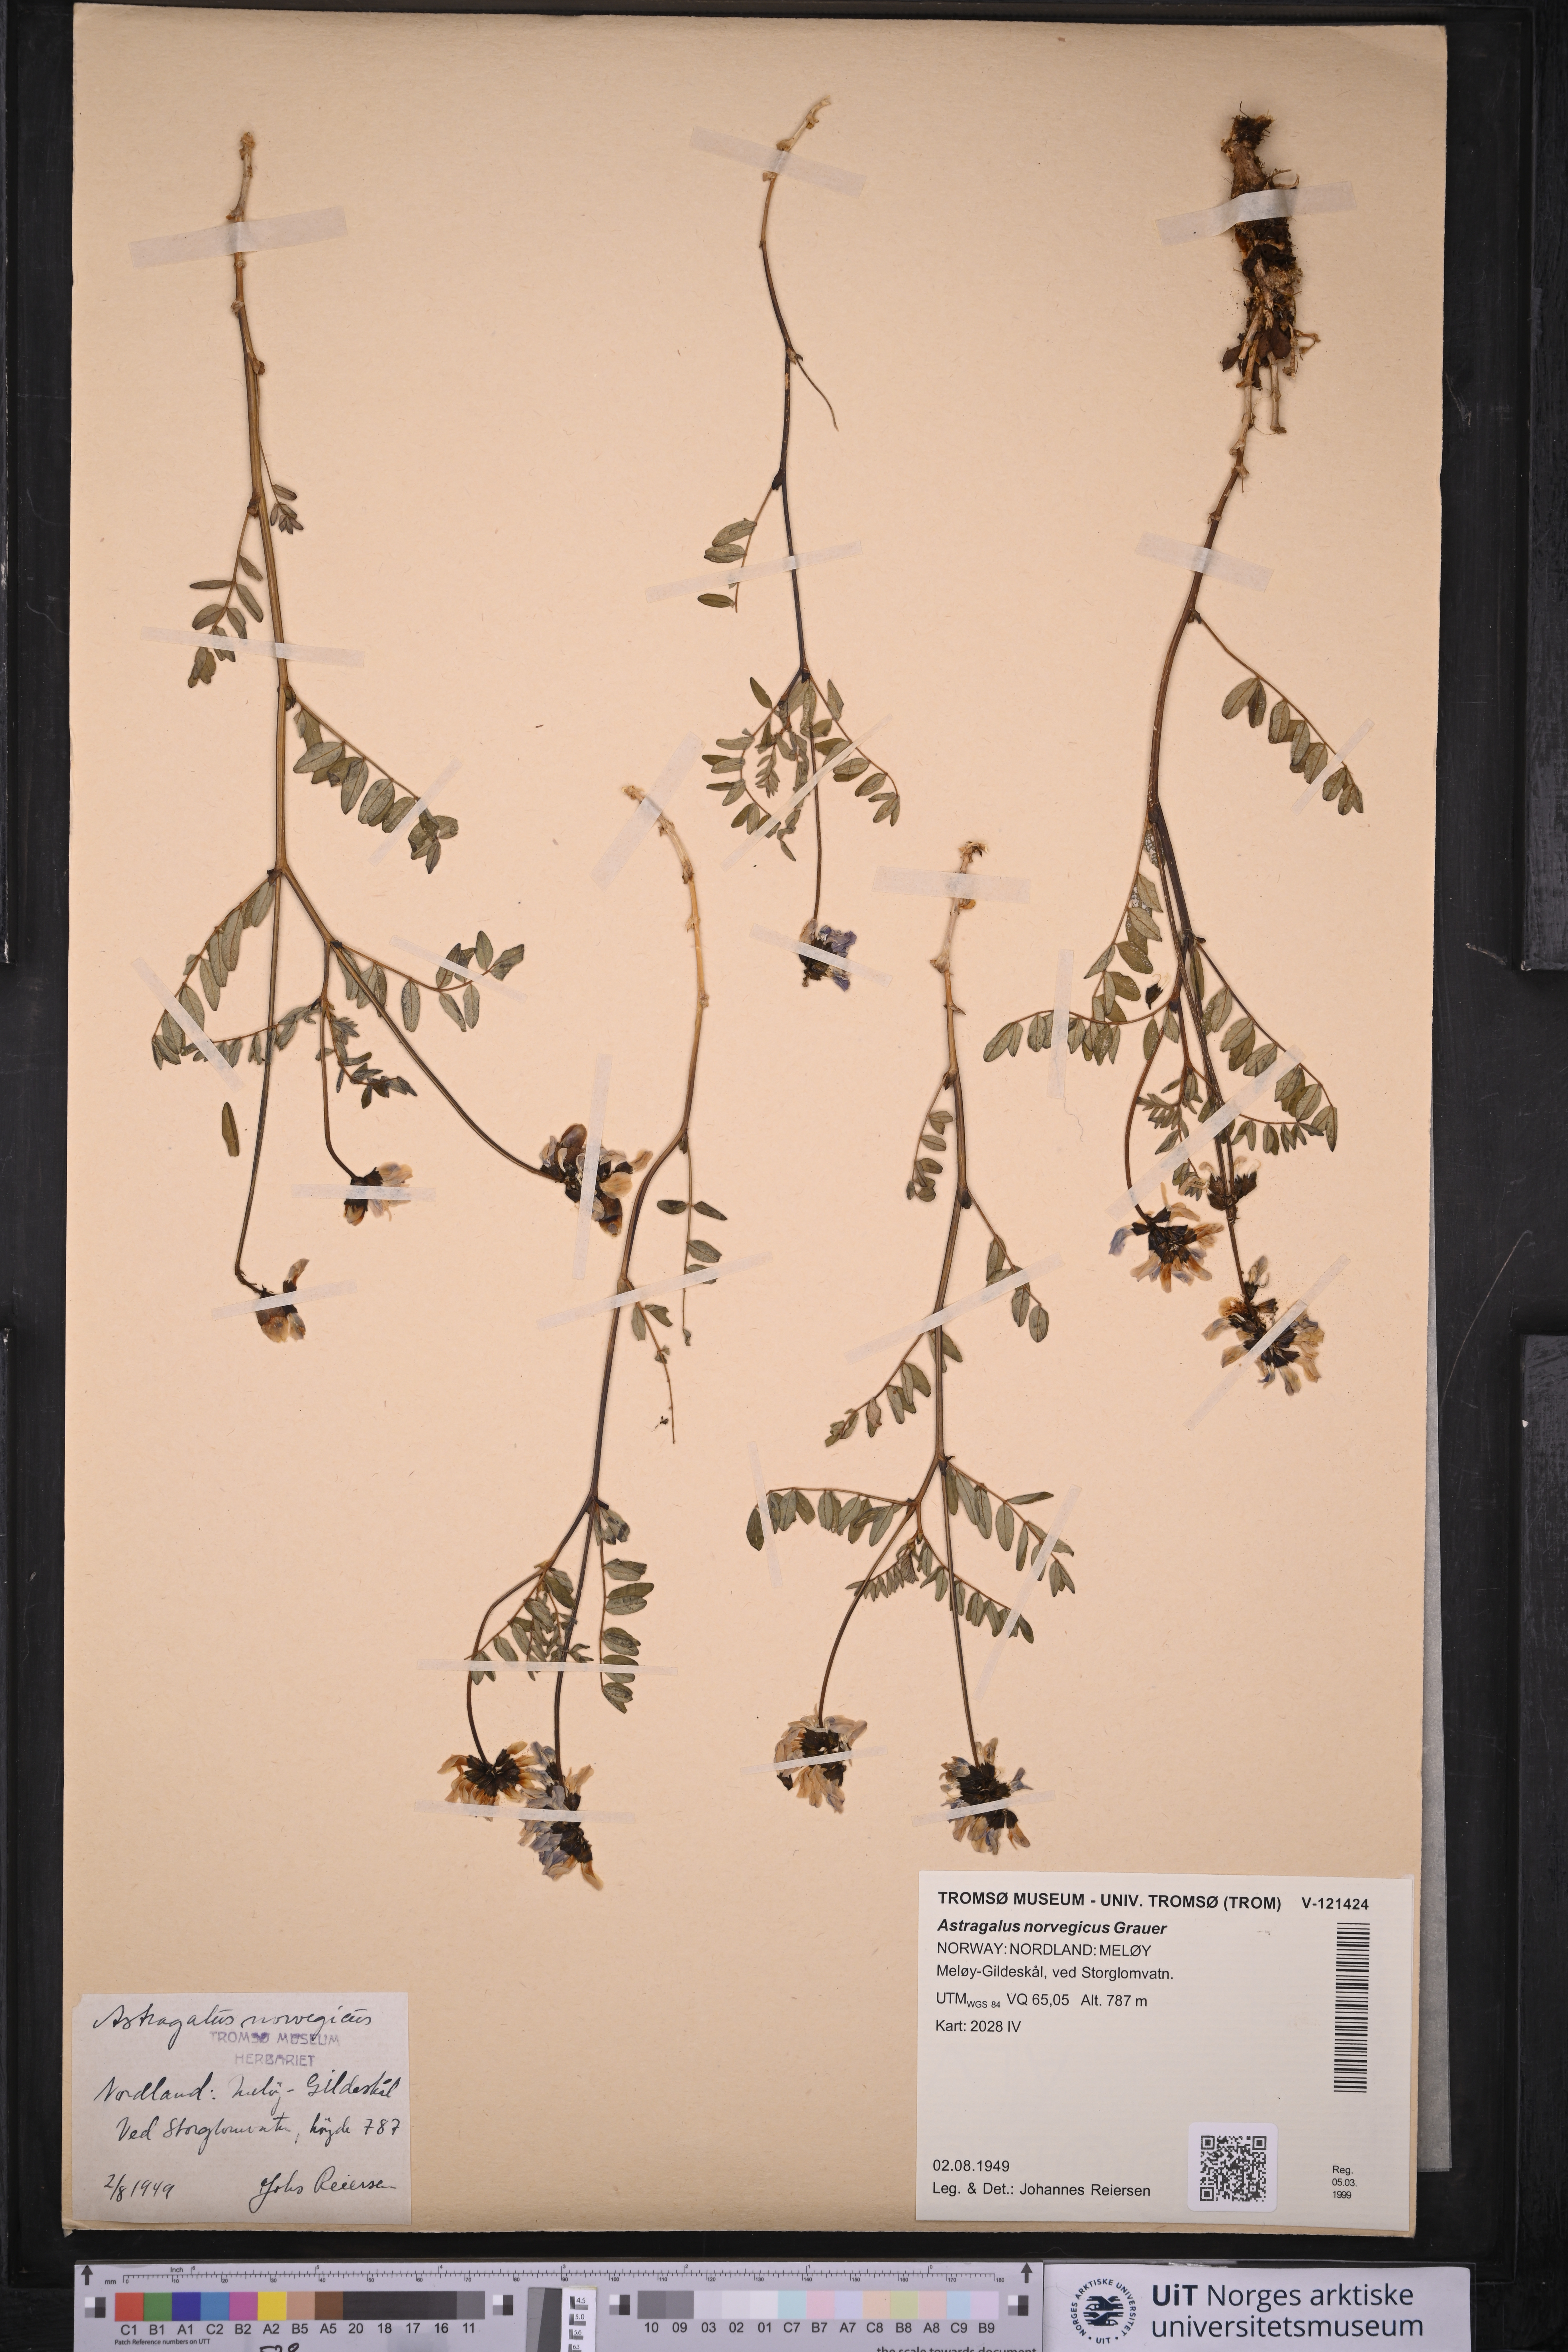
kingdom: Plantae
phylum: Tracheophyta
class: Magnoliopsida
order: Fabales
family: Fabaceae
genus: Astragalus
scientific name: Astragalus norvegicus
